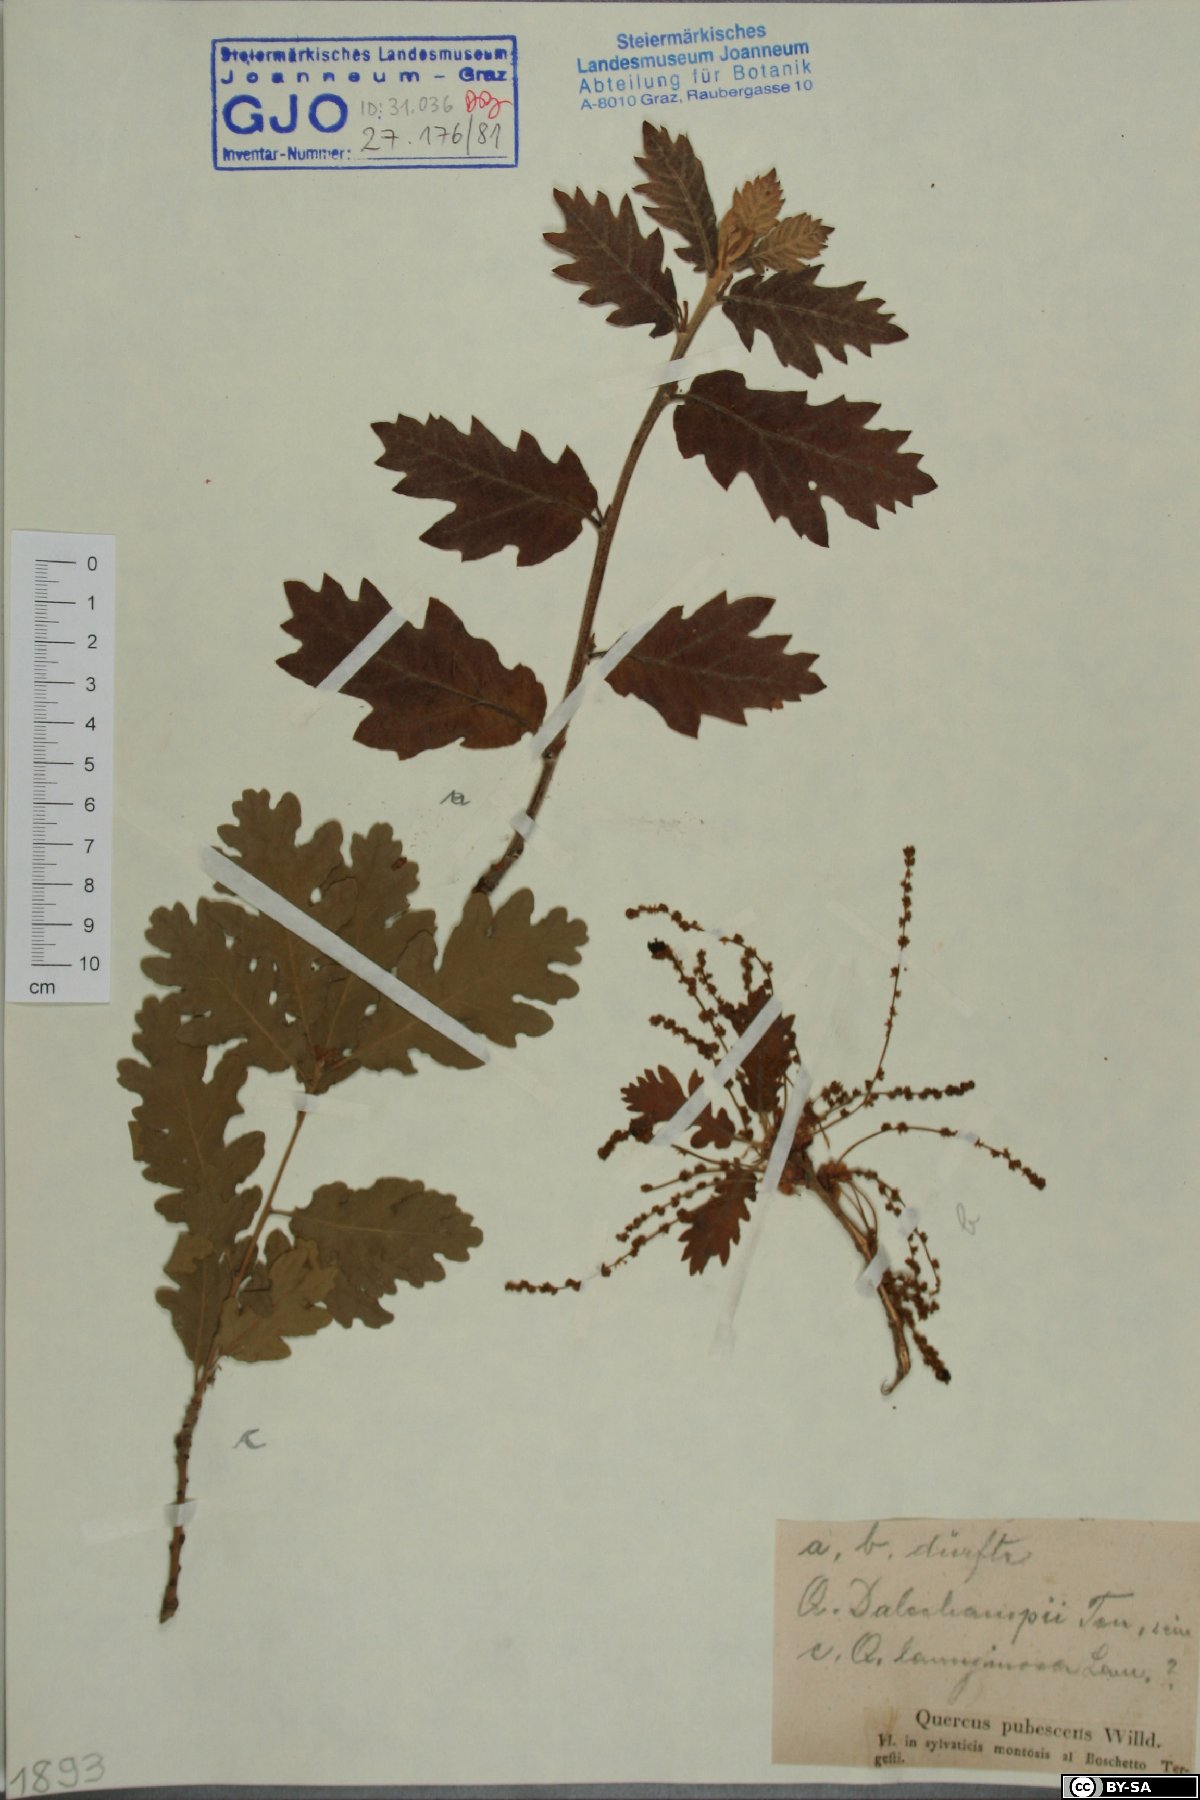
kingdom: Plantae
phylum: Tracheophyta
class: Magnoliopsida
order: Fagales
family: Fagaceae
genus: Quercus
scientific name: Quercus pubescens
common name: Downy oak
